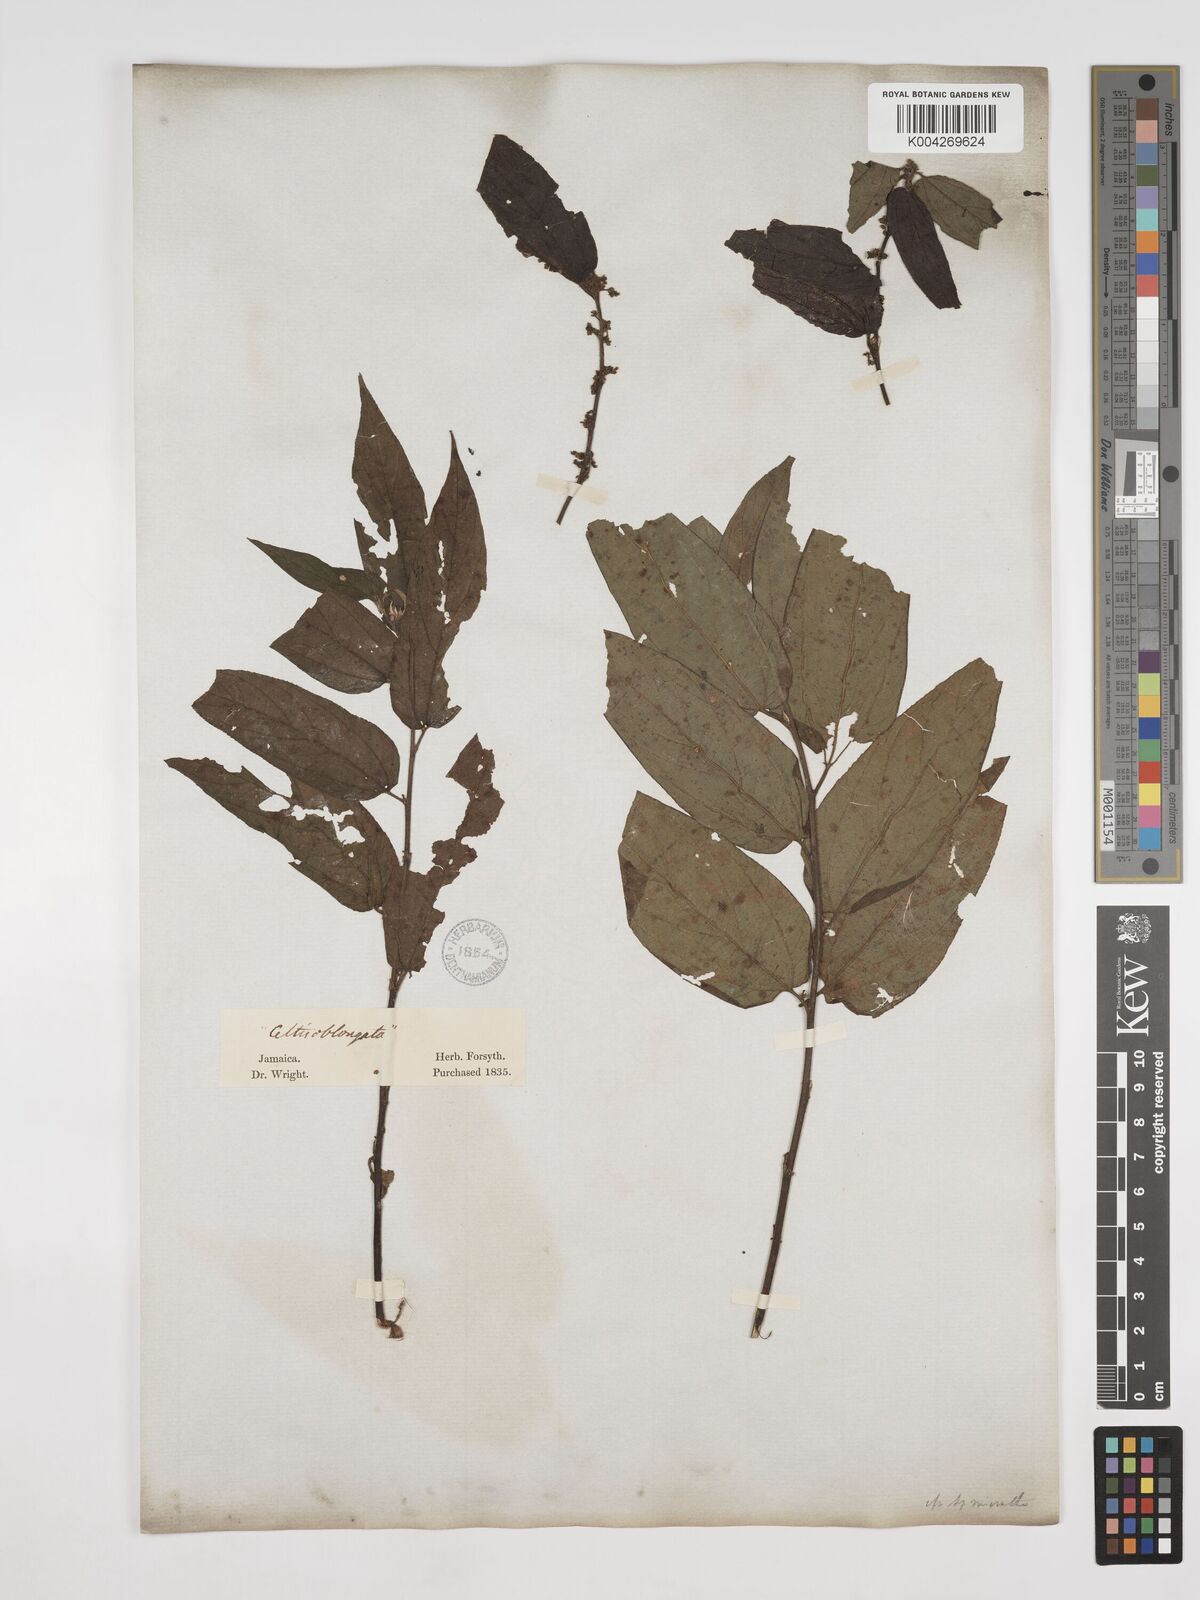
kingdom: Plantae
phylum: Tracheophyta
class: Magnoliopsida
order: Rosales
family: Cannabaceae
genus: Trema
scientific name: Trema micranthum
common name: Jamaican nettletree
